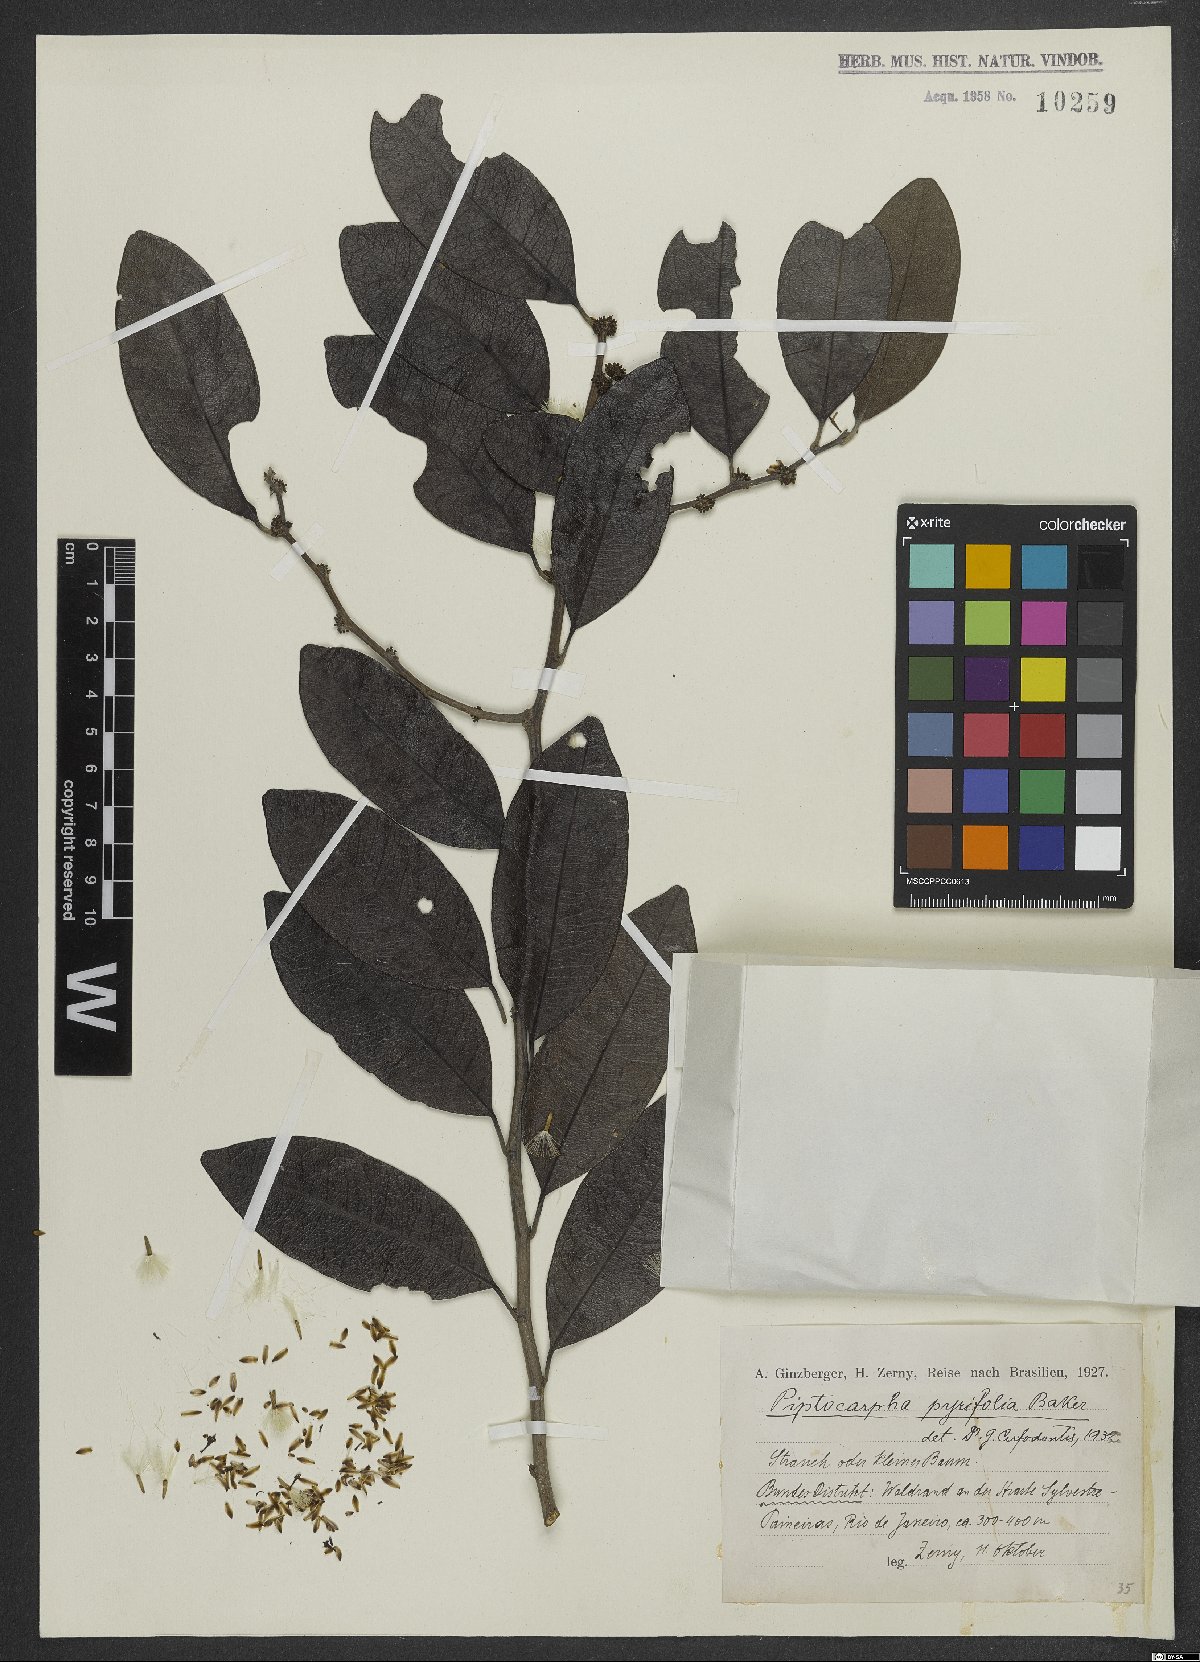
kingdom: Plantae
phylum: Tracheophyta
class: Magnoliopsida
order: Asterales
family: Asteraceae
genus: Piptocarpha
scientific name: Piptocarpha pyrifolia
